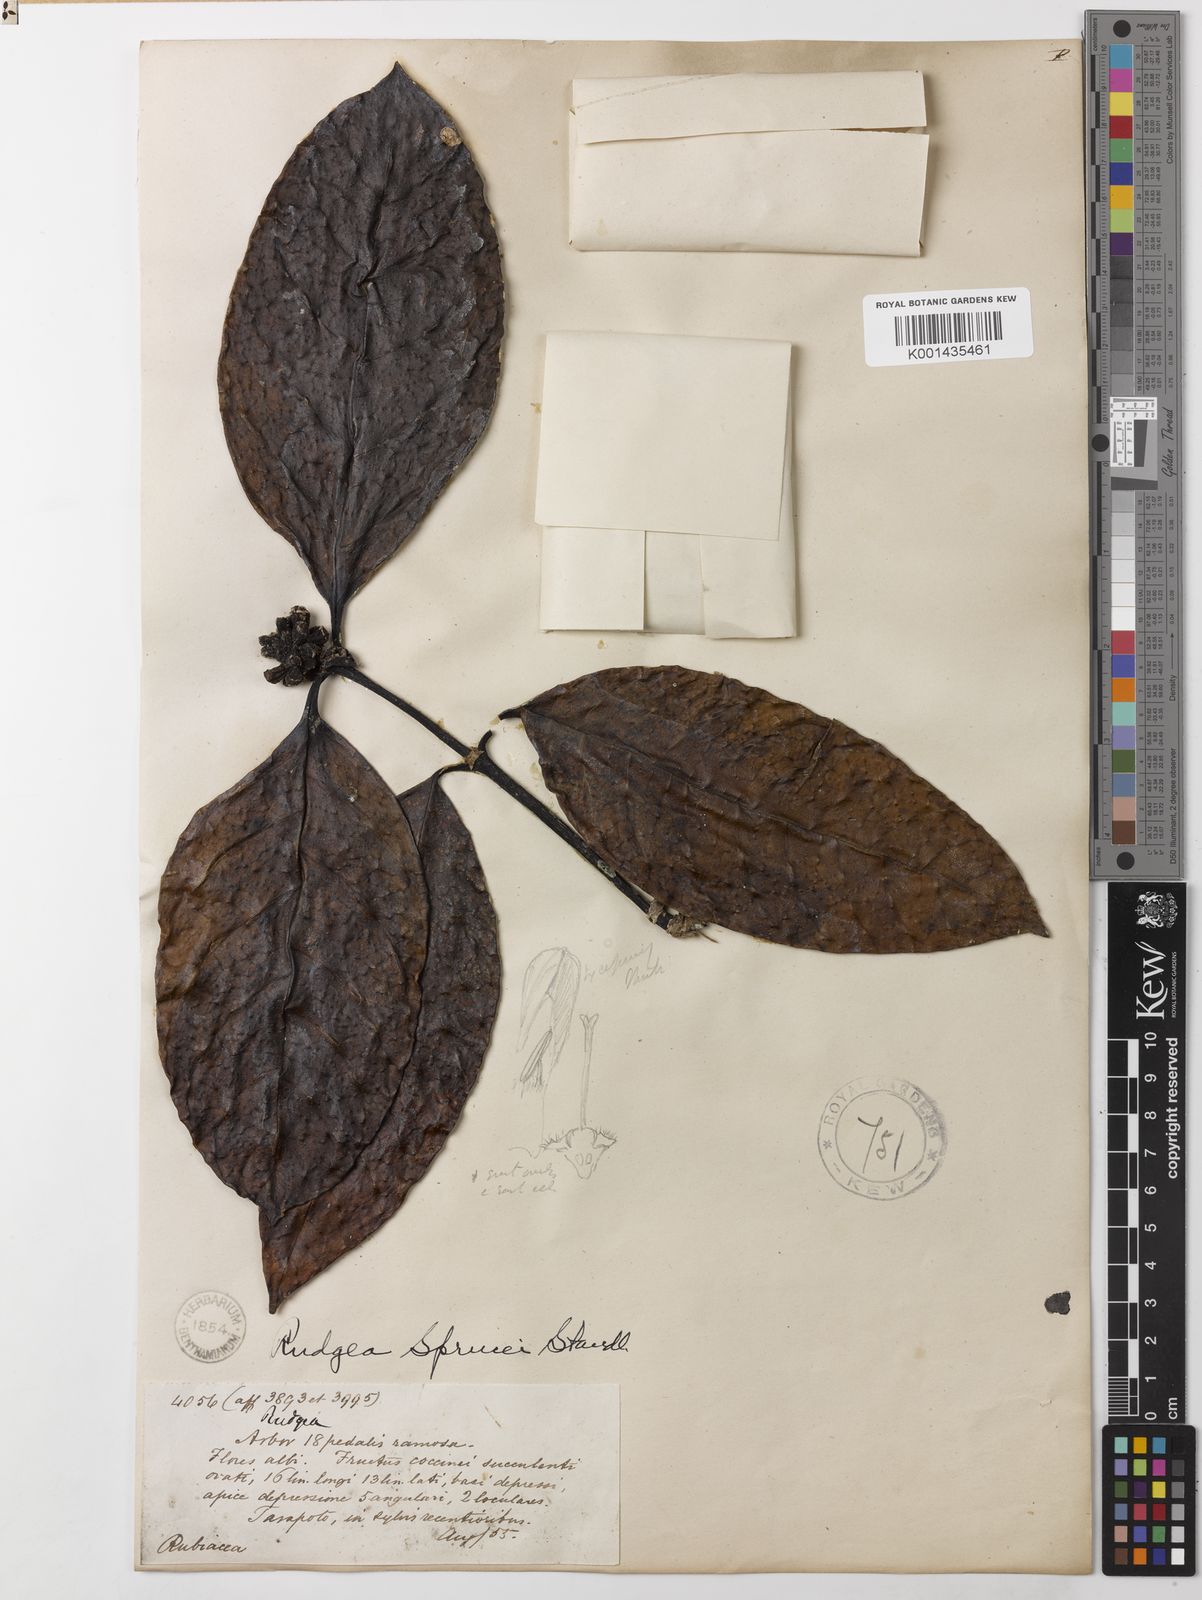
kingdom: Plantae
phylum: Tracheophyta
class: Magnoliopsida
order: Gentianales
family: Rubiaceae
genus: Rudgea
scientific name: Rudgea sprucei
